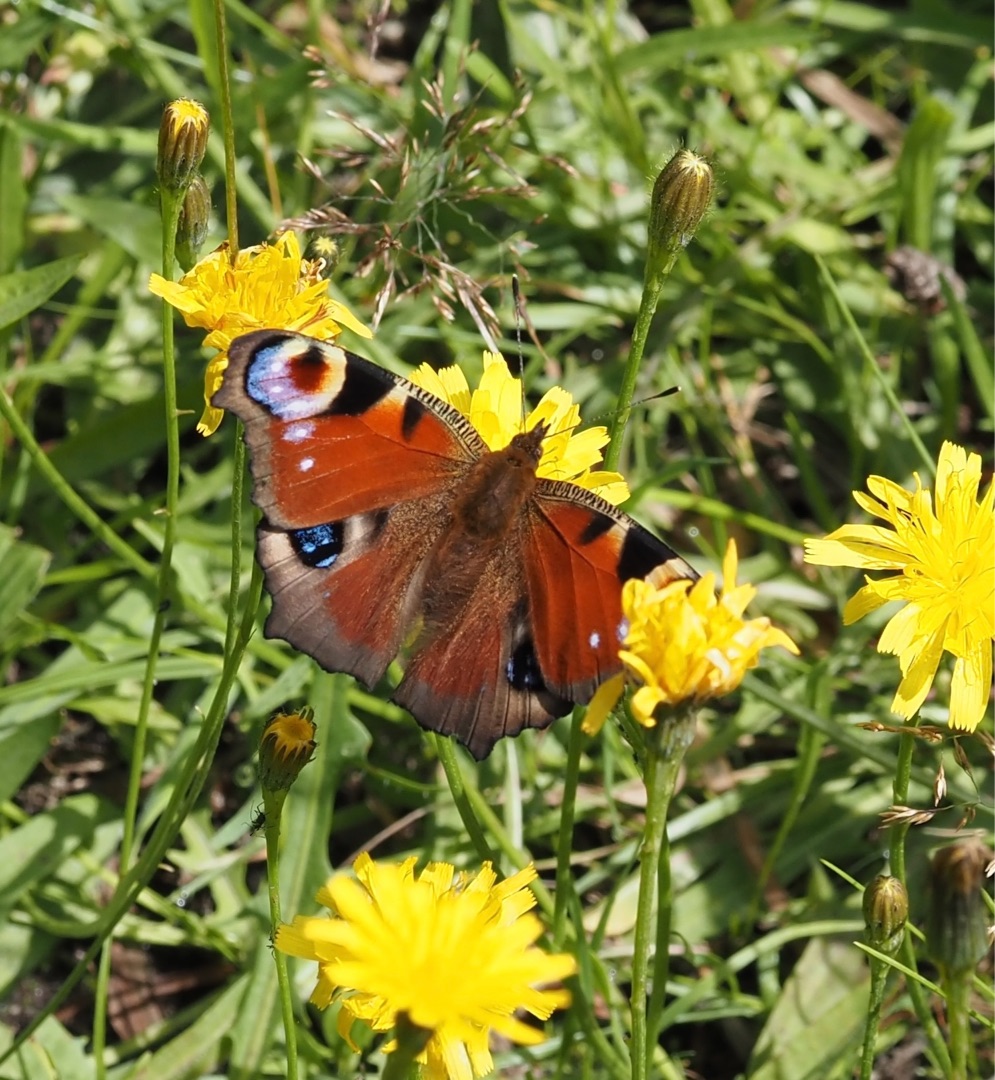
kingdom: Animalia
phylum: Arthropoda
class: Insecta
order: Lepidoptera
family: Nymphalidae
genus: Aglais
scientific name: Aglais io
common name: Dagpåfugleøje
